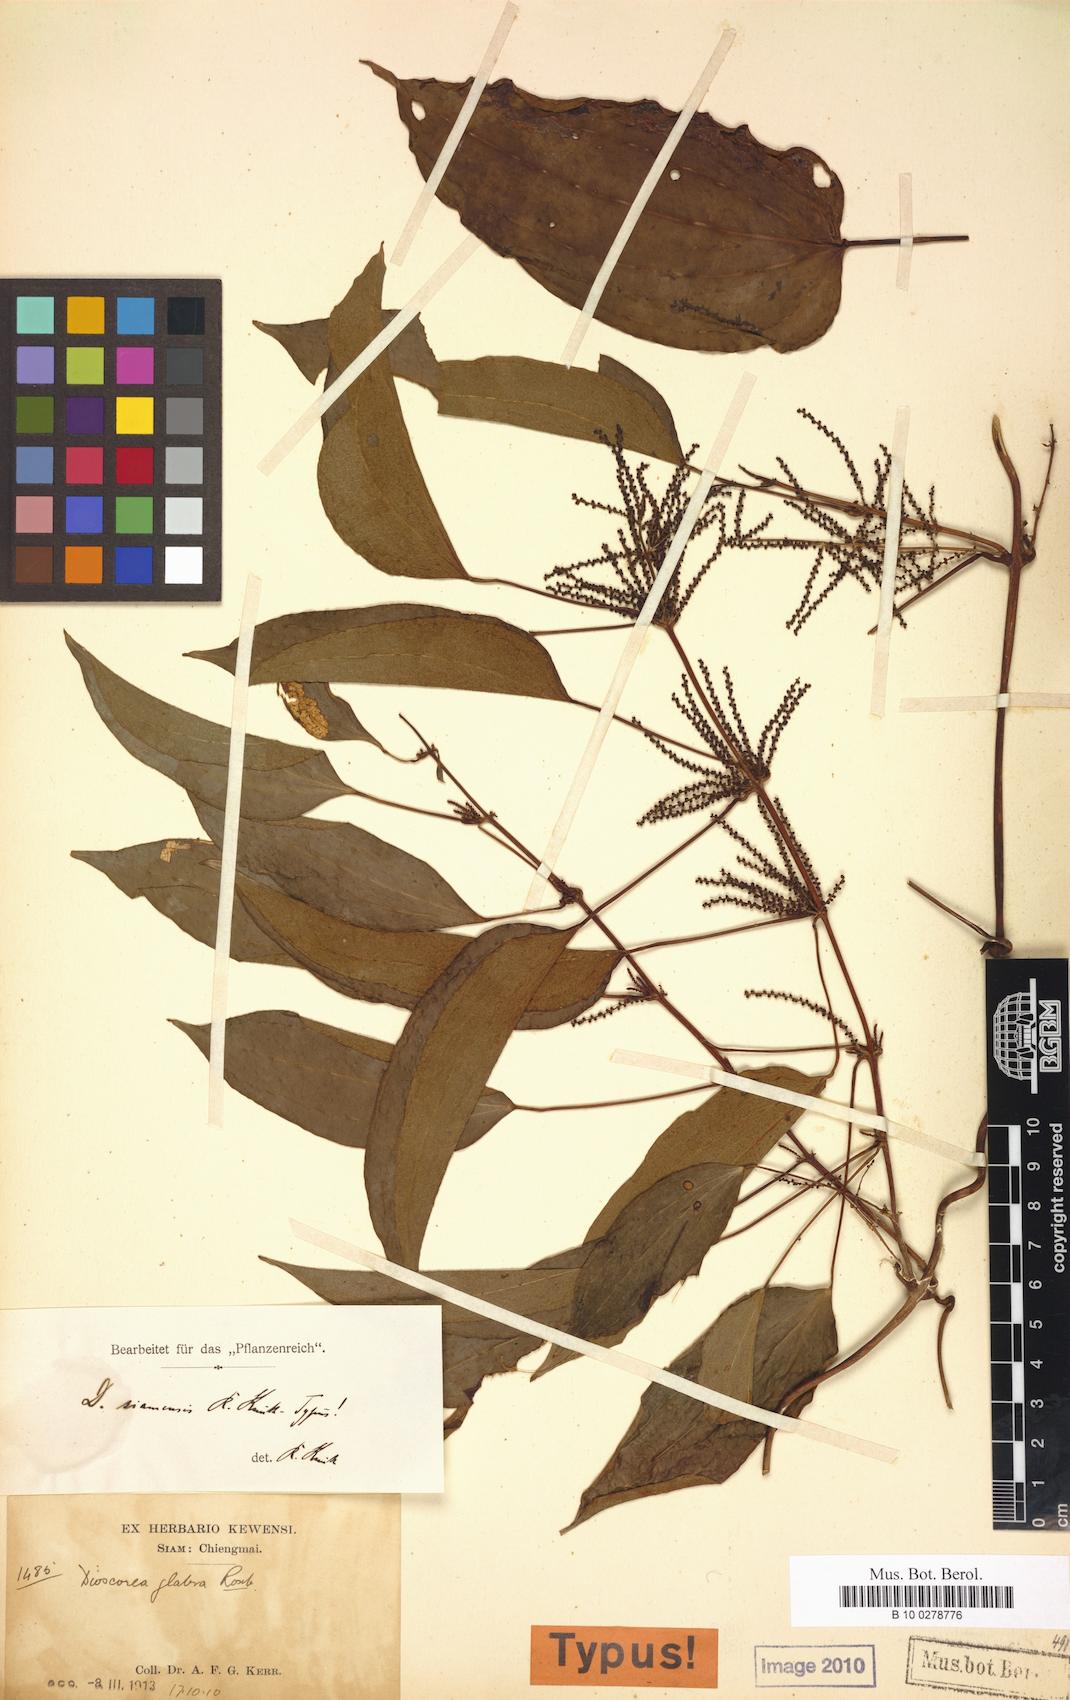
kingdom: Plantae
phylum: Tracheophyta
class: Liliopsida
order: Dioscoreales
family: Dioscoreaceae
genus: Dioscorea
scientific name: Dioscorea glabra
